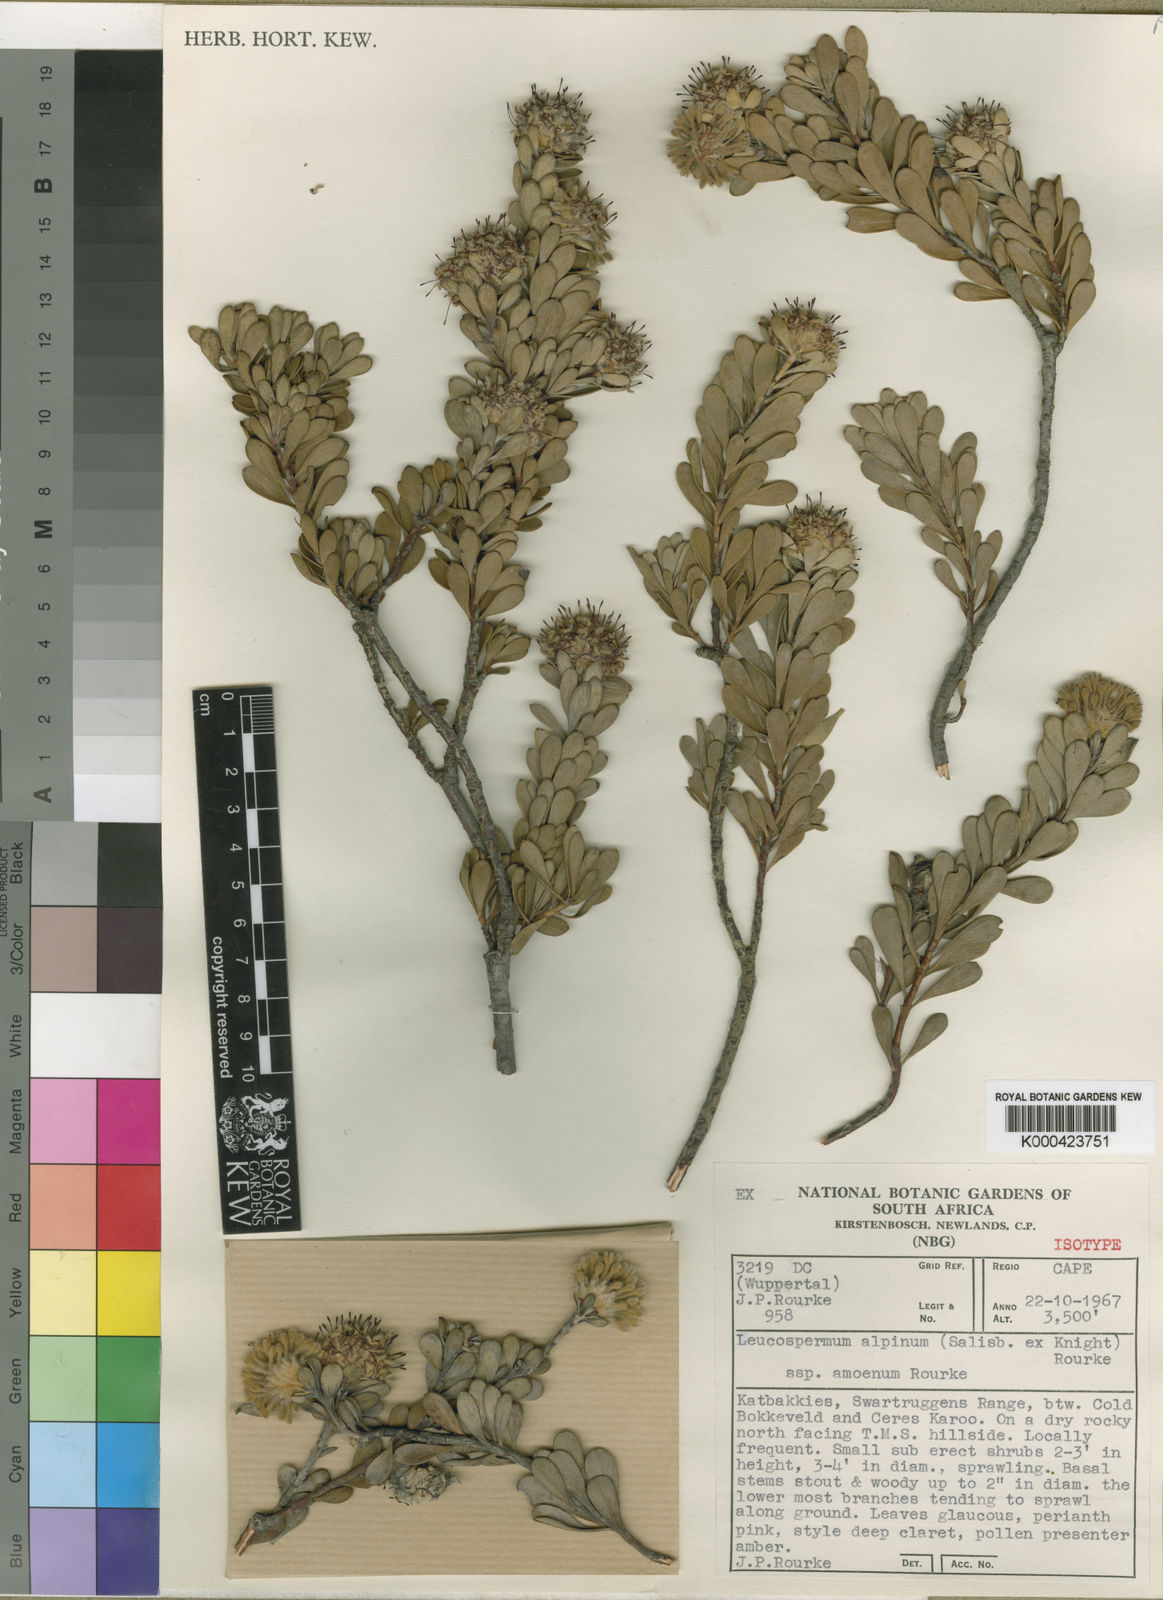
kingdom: Plantae
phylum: Tracheophyta
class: Magnoliopsida
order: Proteales
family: Proteaceae
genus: Vexatorella
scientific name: Vexatorella amoena
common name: Swartruggens vexator
